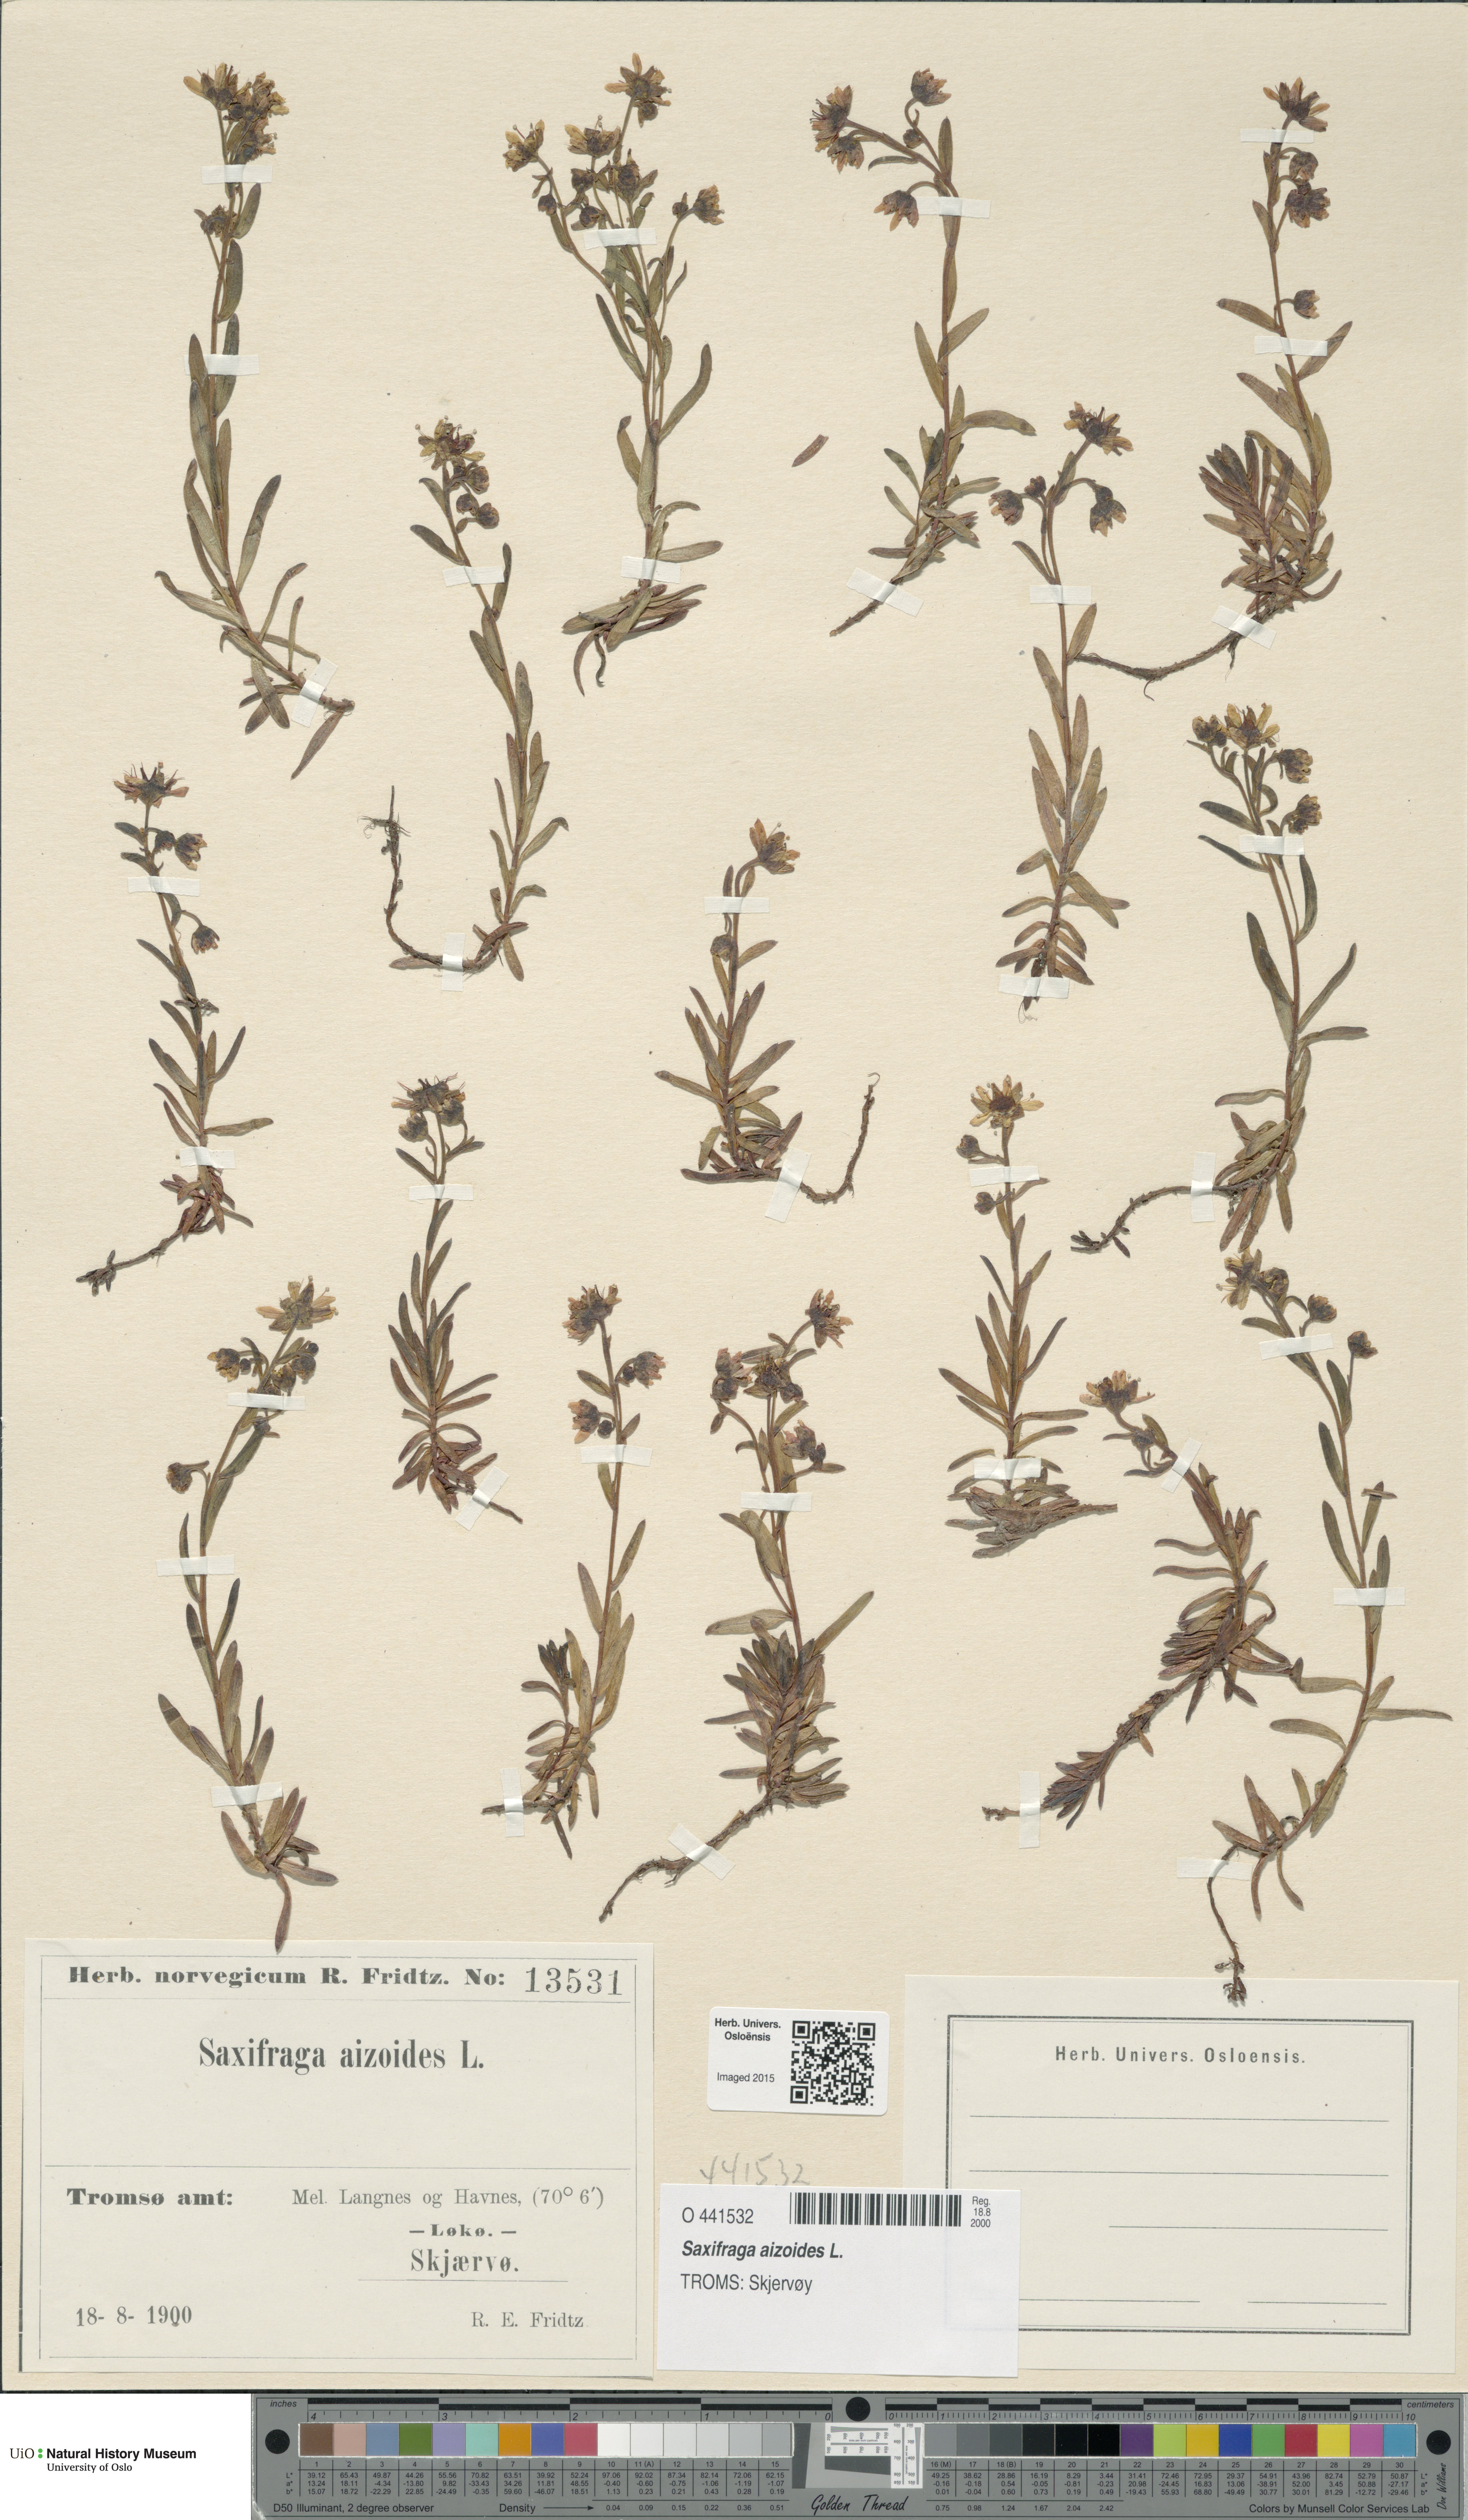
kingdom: Plantae
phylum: Tracheophyta
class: Magnoliopsida
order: Saxifragales
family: Saxifragaceae
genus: Saxifraga
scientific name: Saxifraga aizoides
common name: Yellow mountain saxifrage
